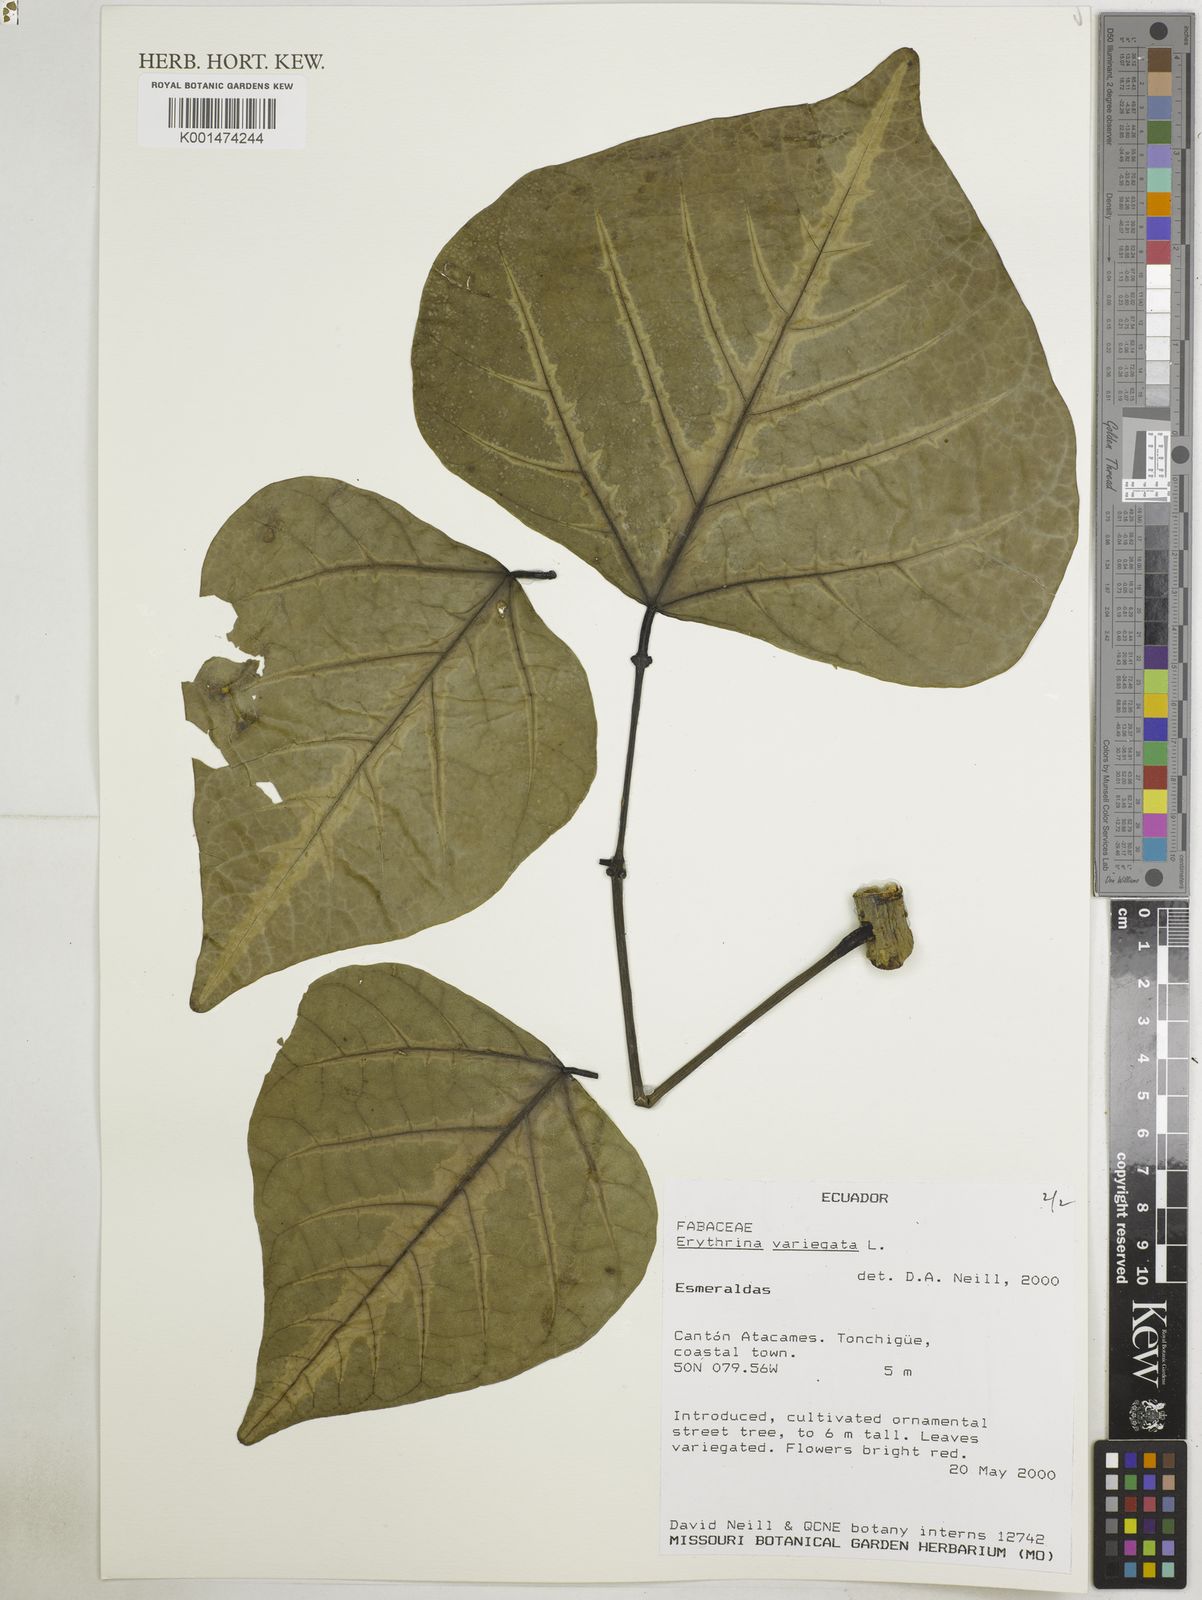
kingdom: Plantae
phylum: Tracheophyta
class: Magnoliopsida
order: Fabales
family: Fabaceae
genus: Erythrina
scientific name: Erythrina variegata
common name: Indian coral tree
